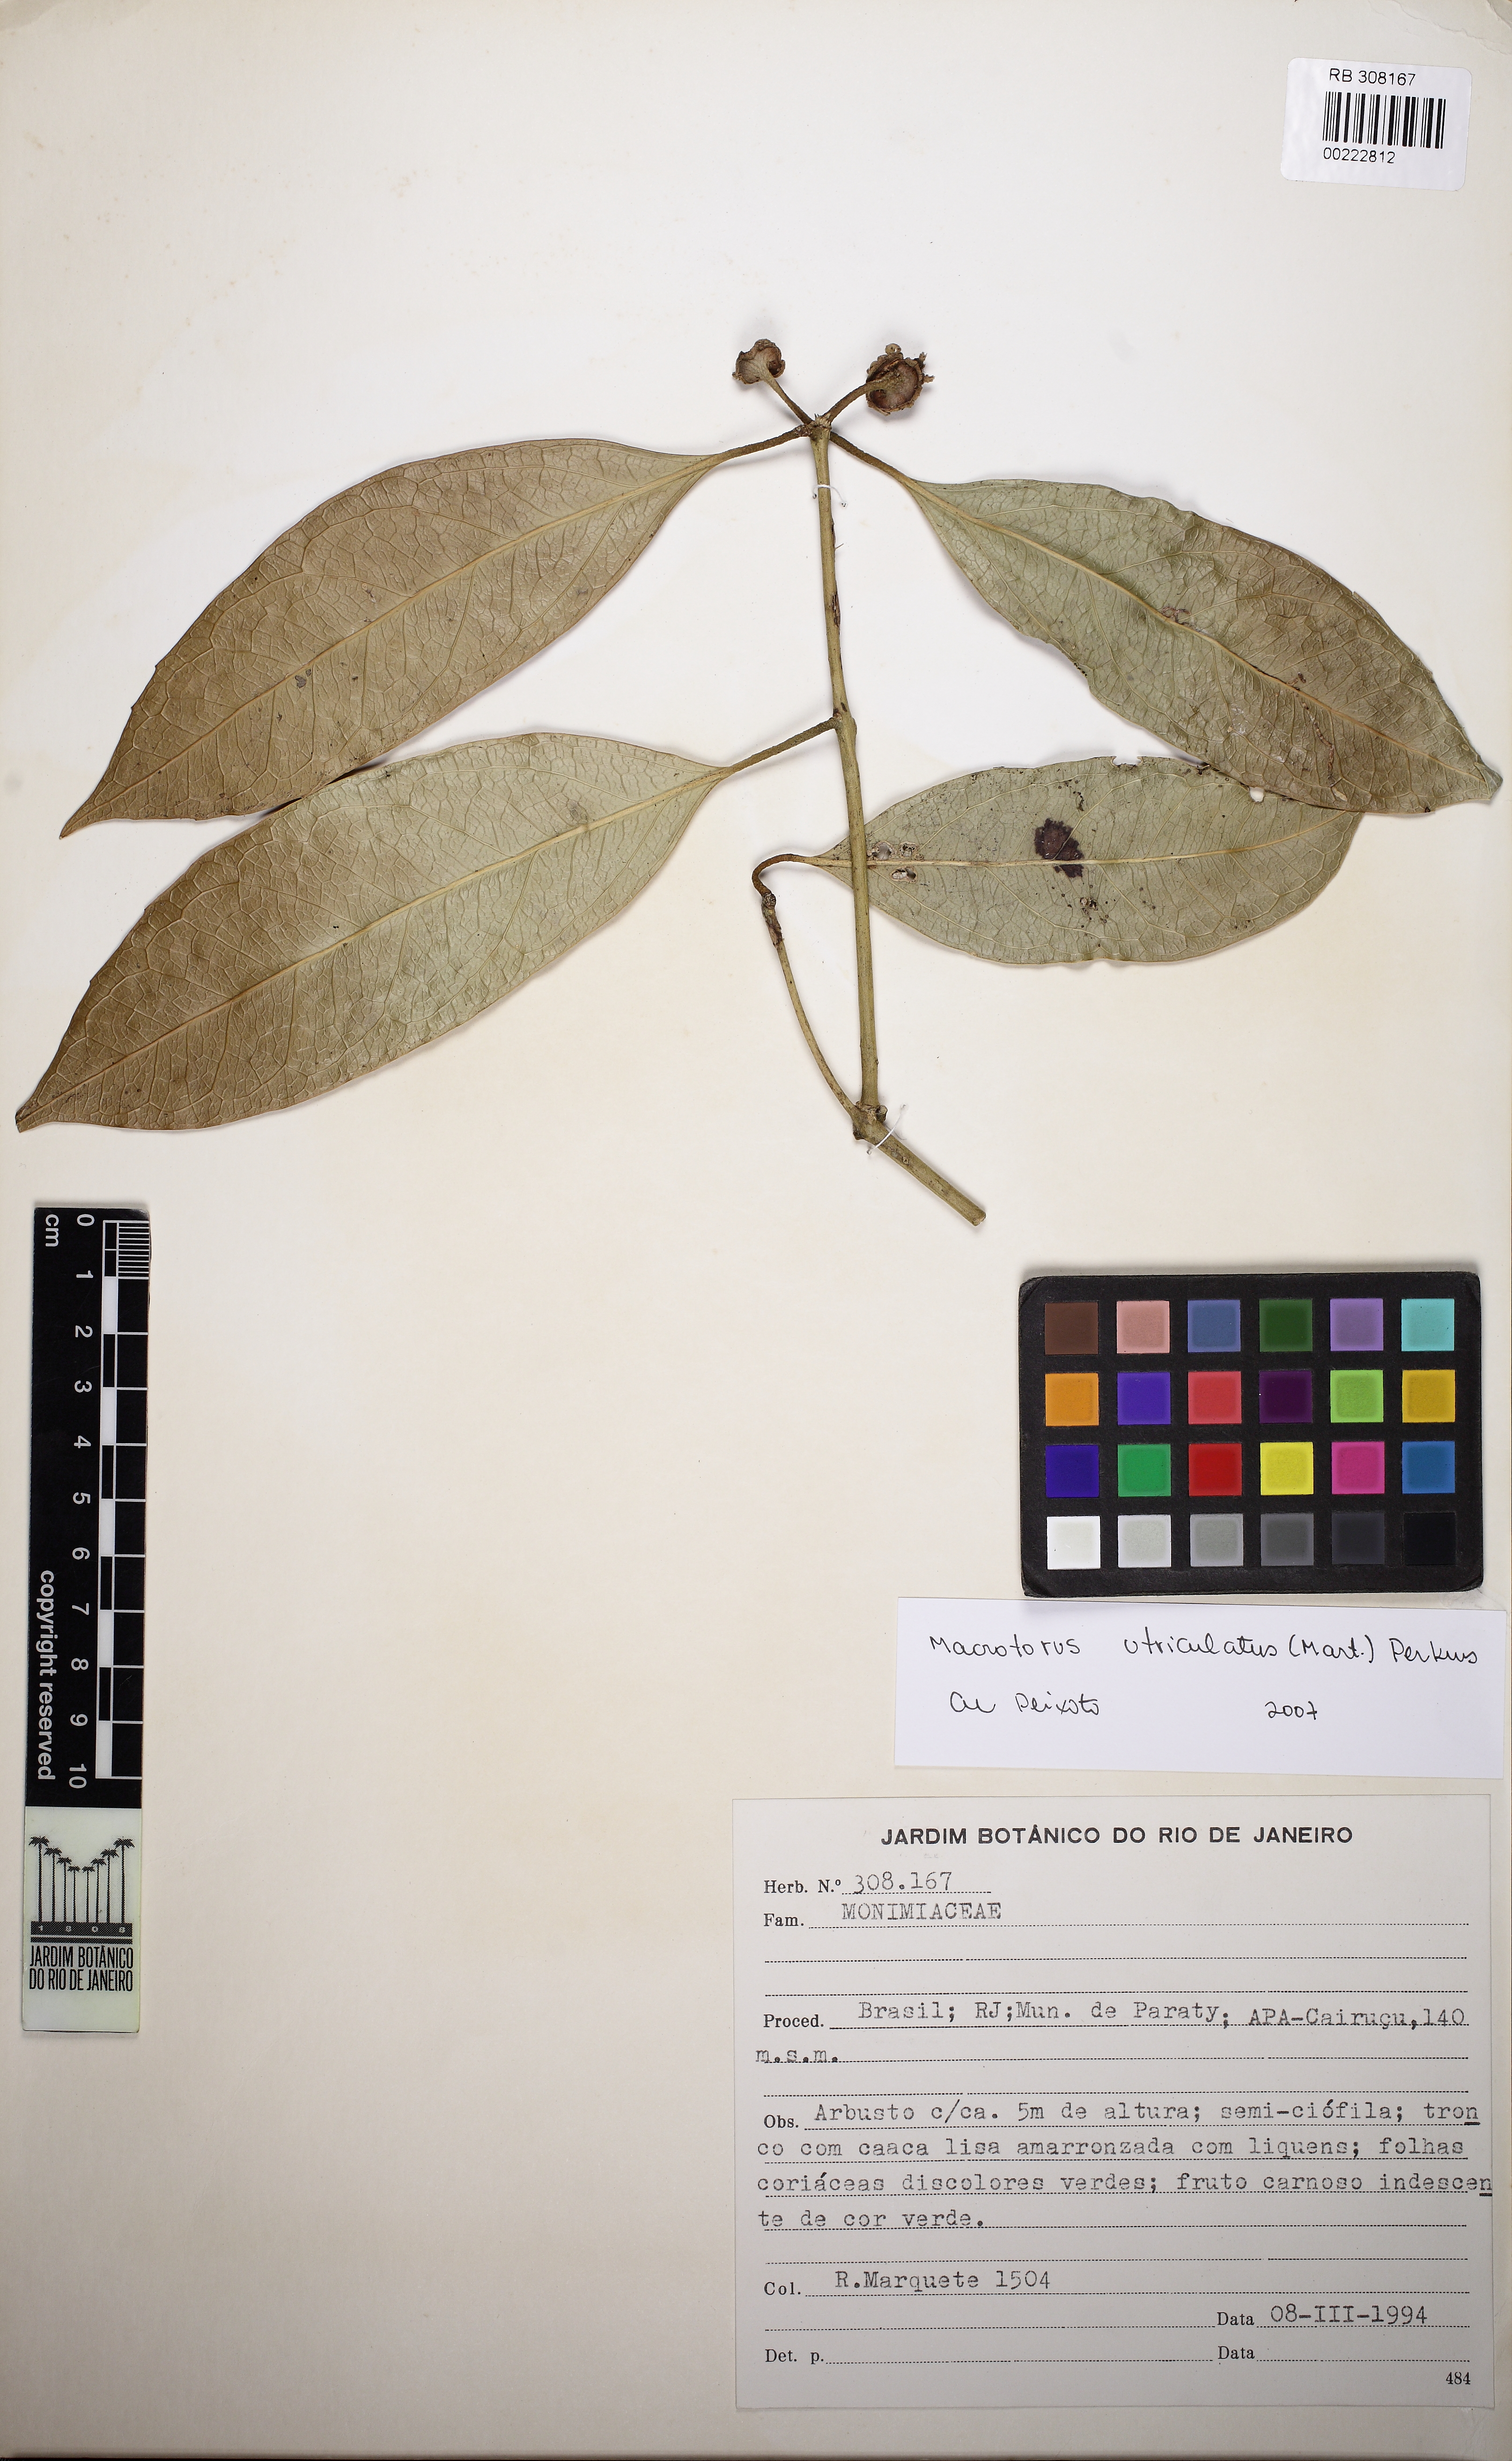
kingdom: Plantae
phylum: Tracheophyta
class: Magnoliopsida
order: Laurales
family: Monimiaceae
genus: Macrotorus
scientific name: Macrotorus utriculatus
